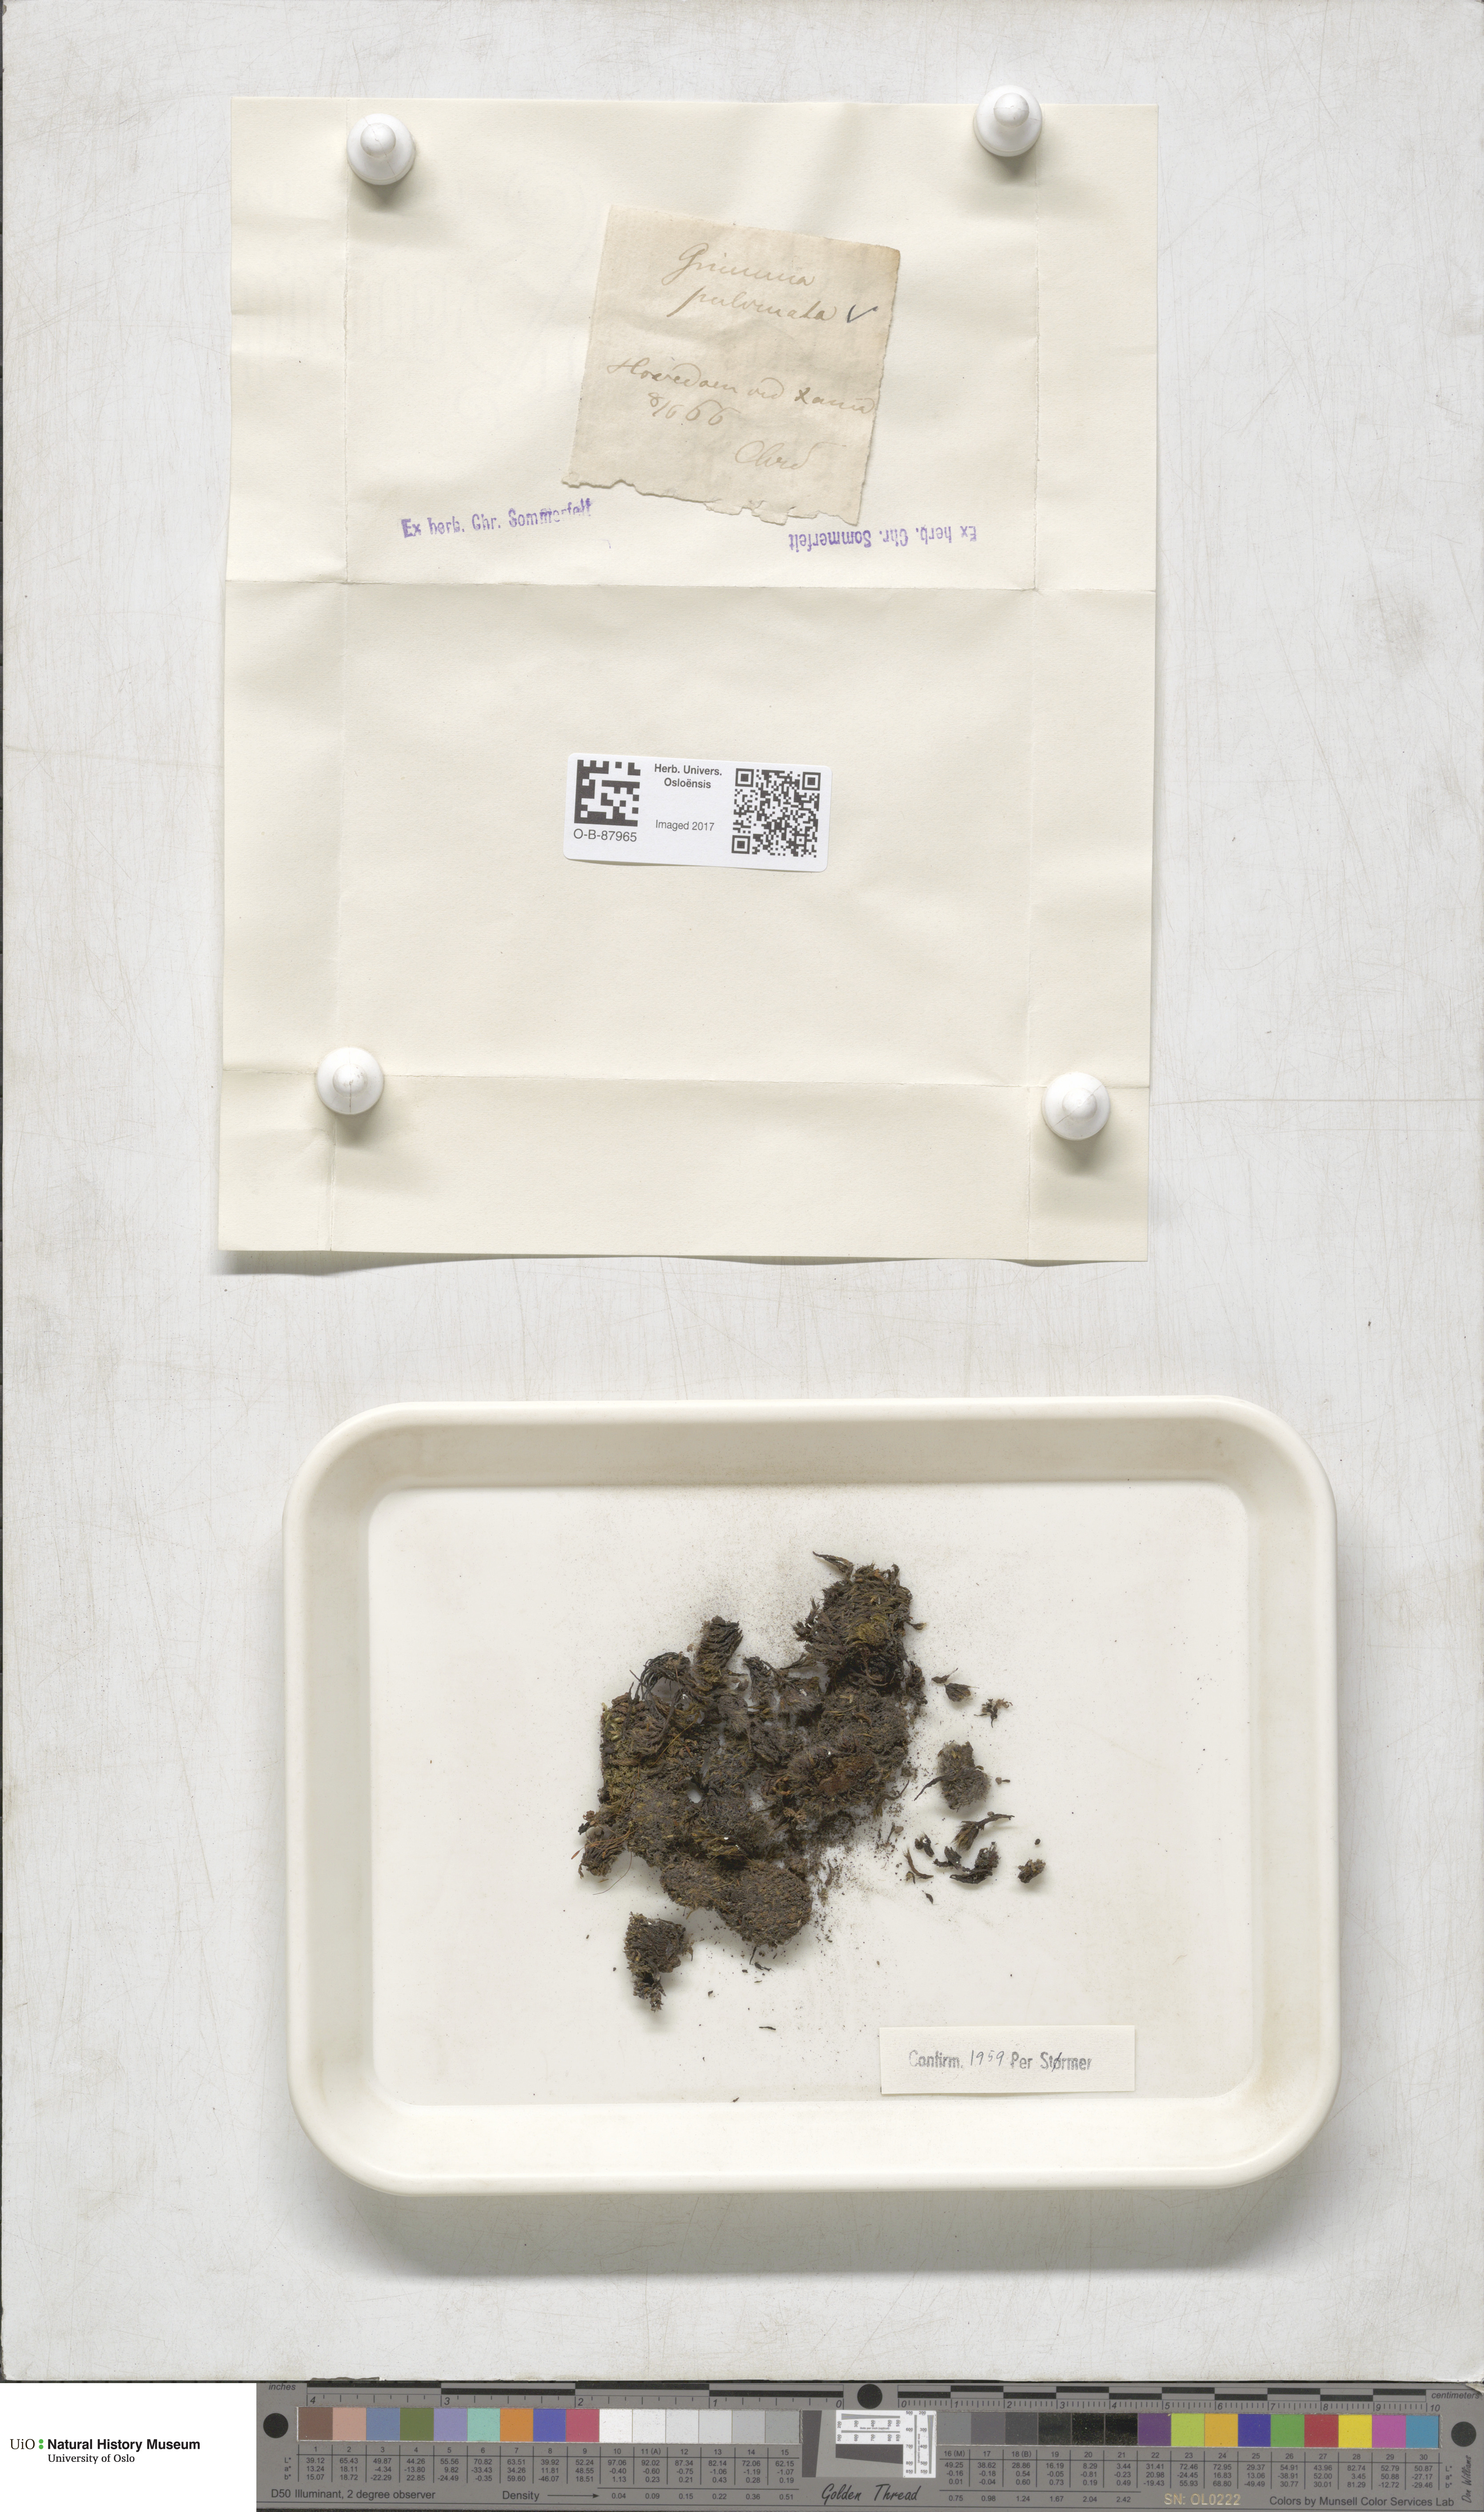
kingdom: Plantae
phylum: Bryophyta
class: Bryopsida
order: Grimmiales
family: Grimmiaceae
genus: Grimmia
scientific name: Grimmia pulvinata
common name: Grey-cushioned grimmia
